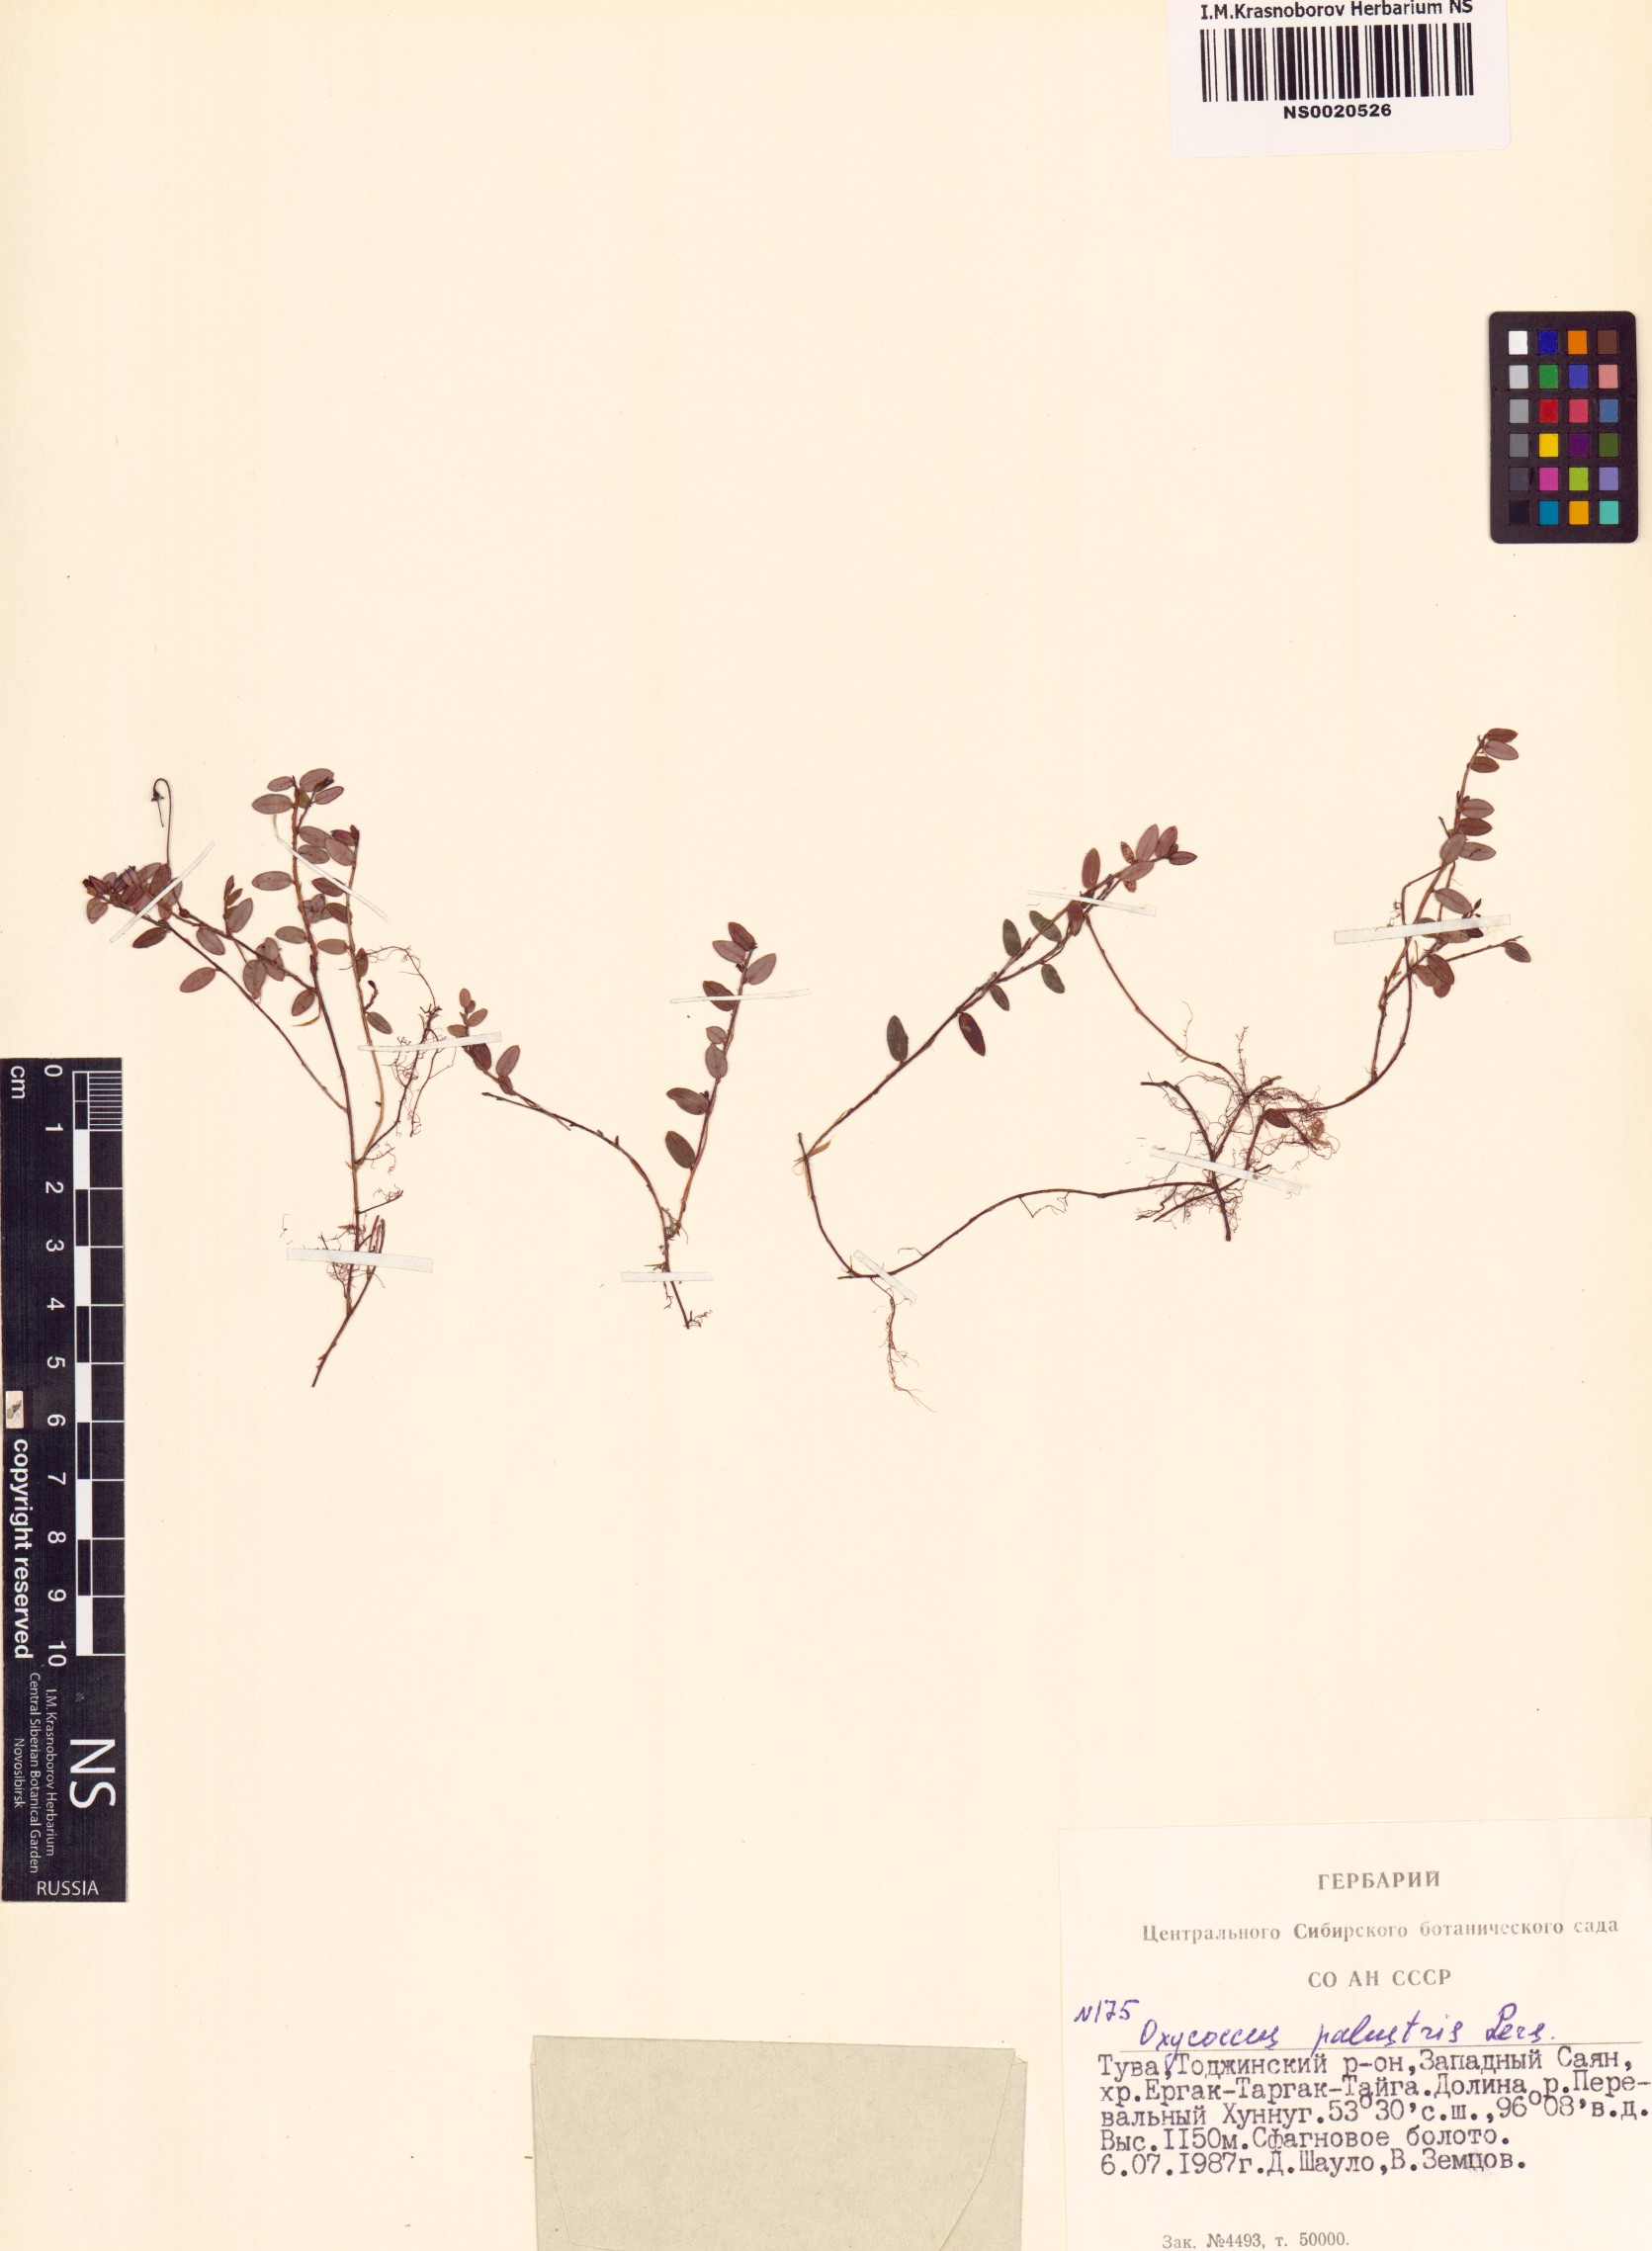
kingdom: Plantae
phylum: Tracheophyta
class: Magnoliopsida
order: Ericales
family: Ericaceae
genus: Vaccinium
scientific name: Vaccinium oxycoccos
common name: Cranberry
